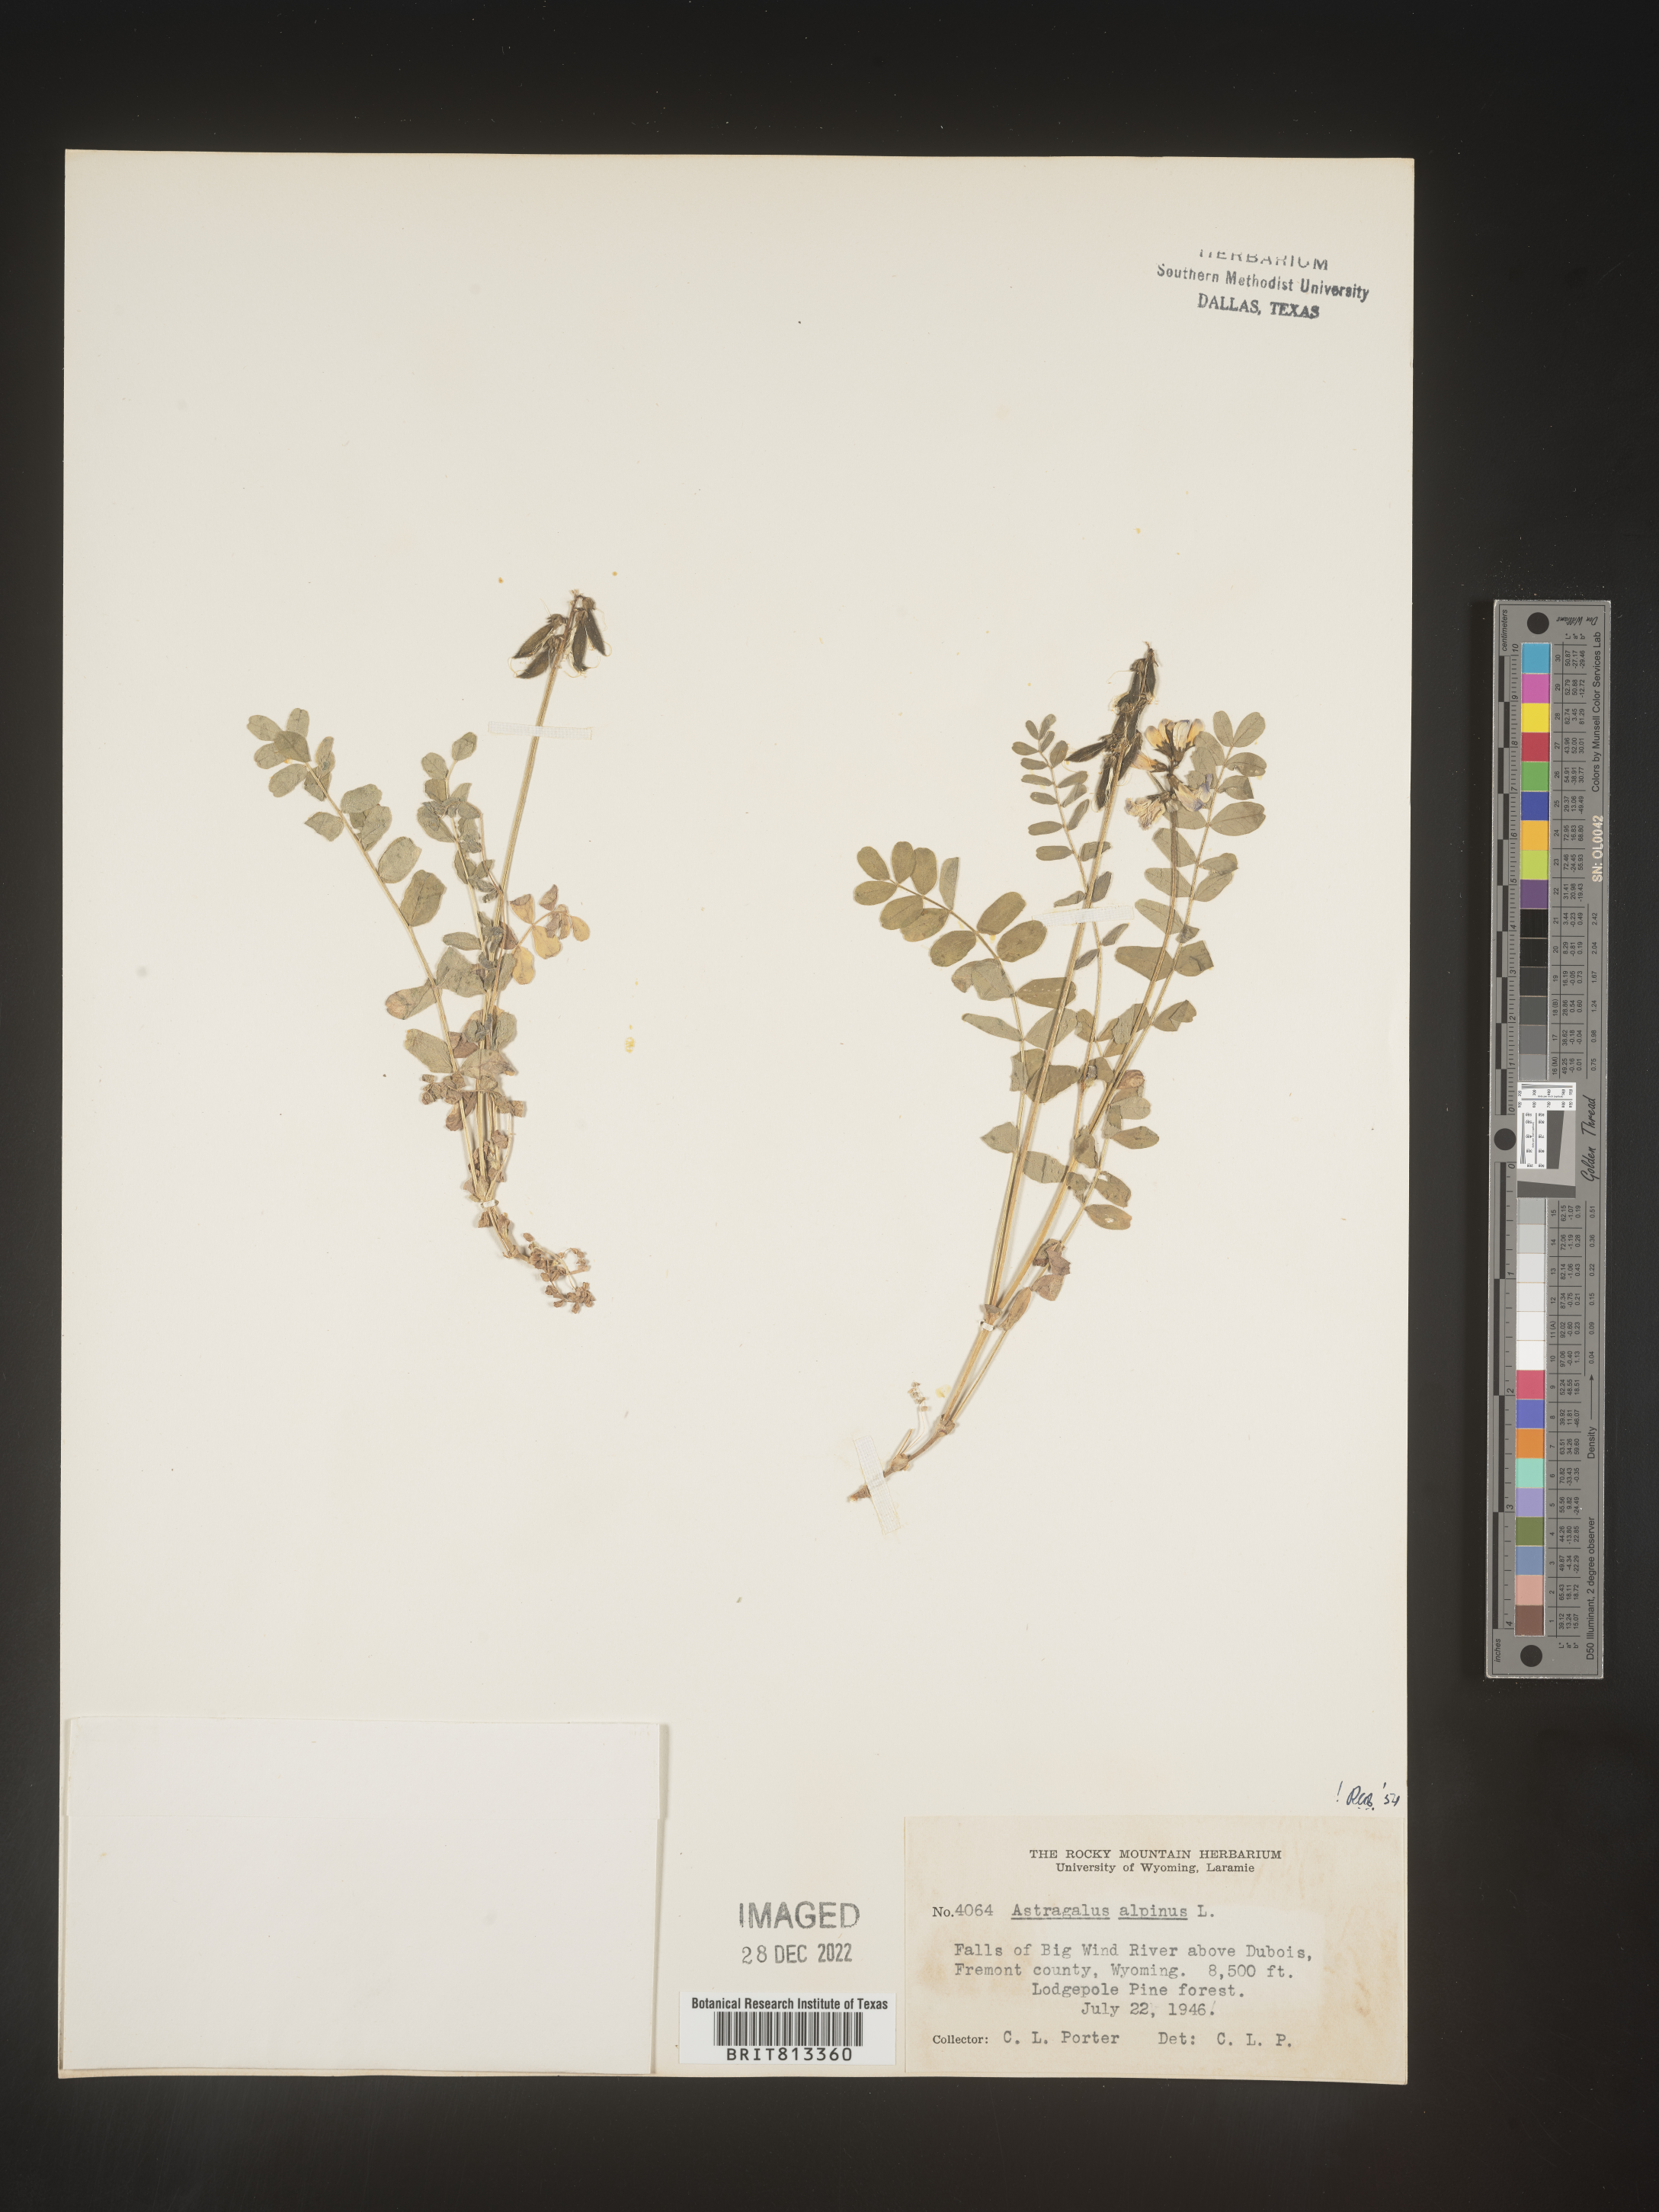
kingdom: Plantae
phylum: Tracheophyta
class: Magnoliopsida
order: Fabales
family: Fabaceae
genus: Astragalus
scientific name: Astragalus alpinus
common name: Alpine milk-vetch
